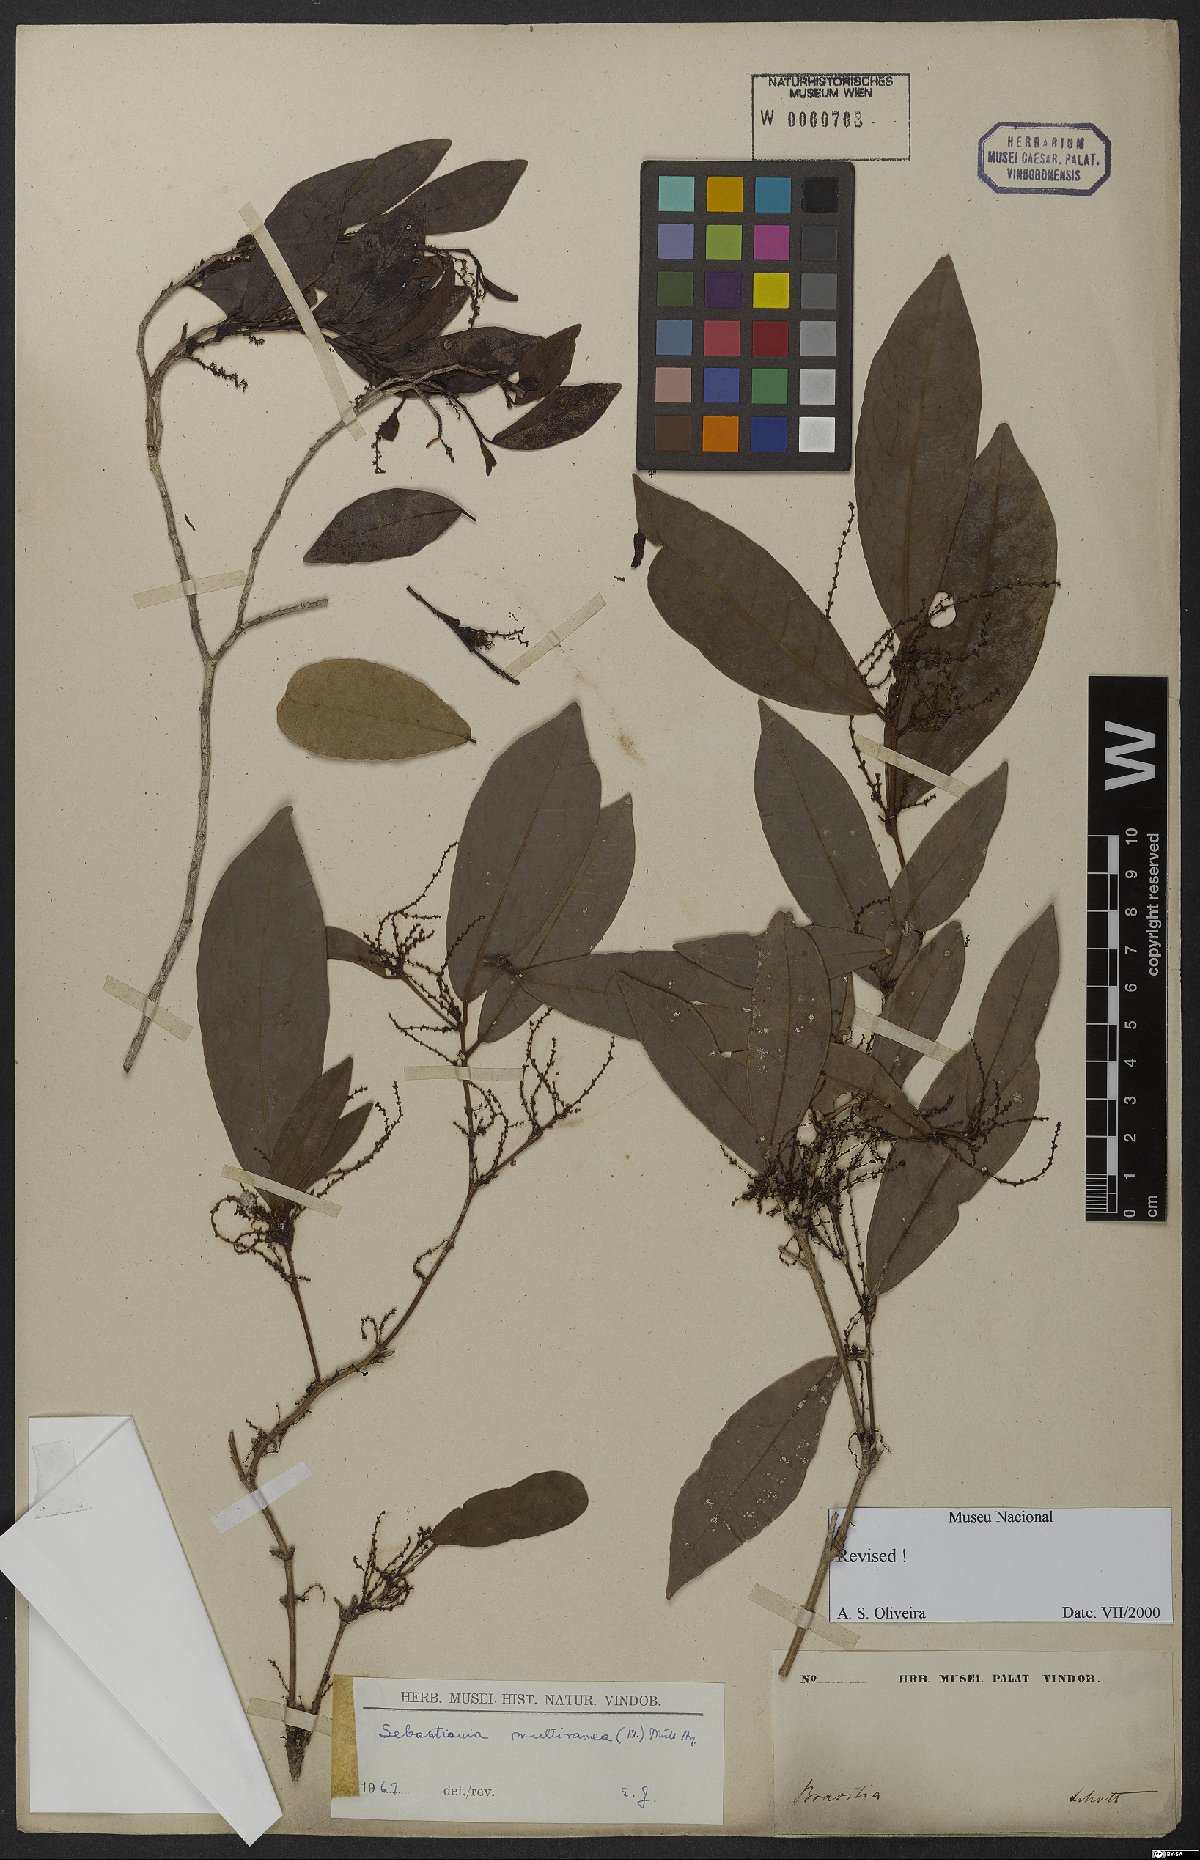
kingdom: Plantae
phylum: Tracheophyta
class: Magnoliopsida
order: Malpighiales
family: Euphorbiaceae
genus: Gymnanthes
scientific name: Gymnanthes glabrata
